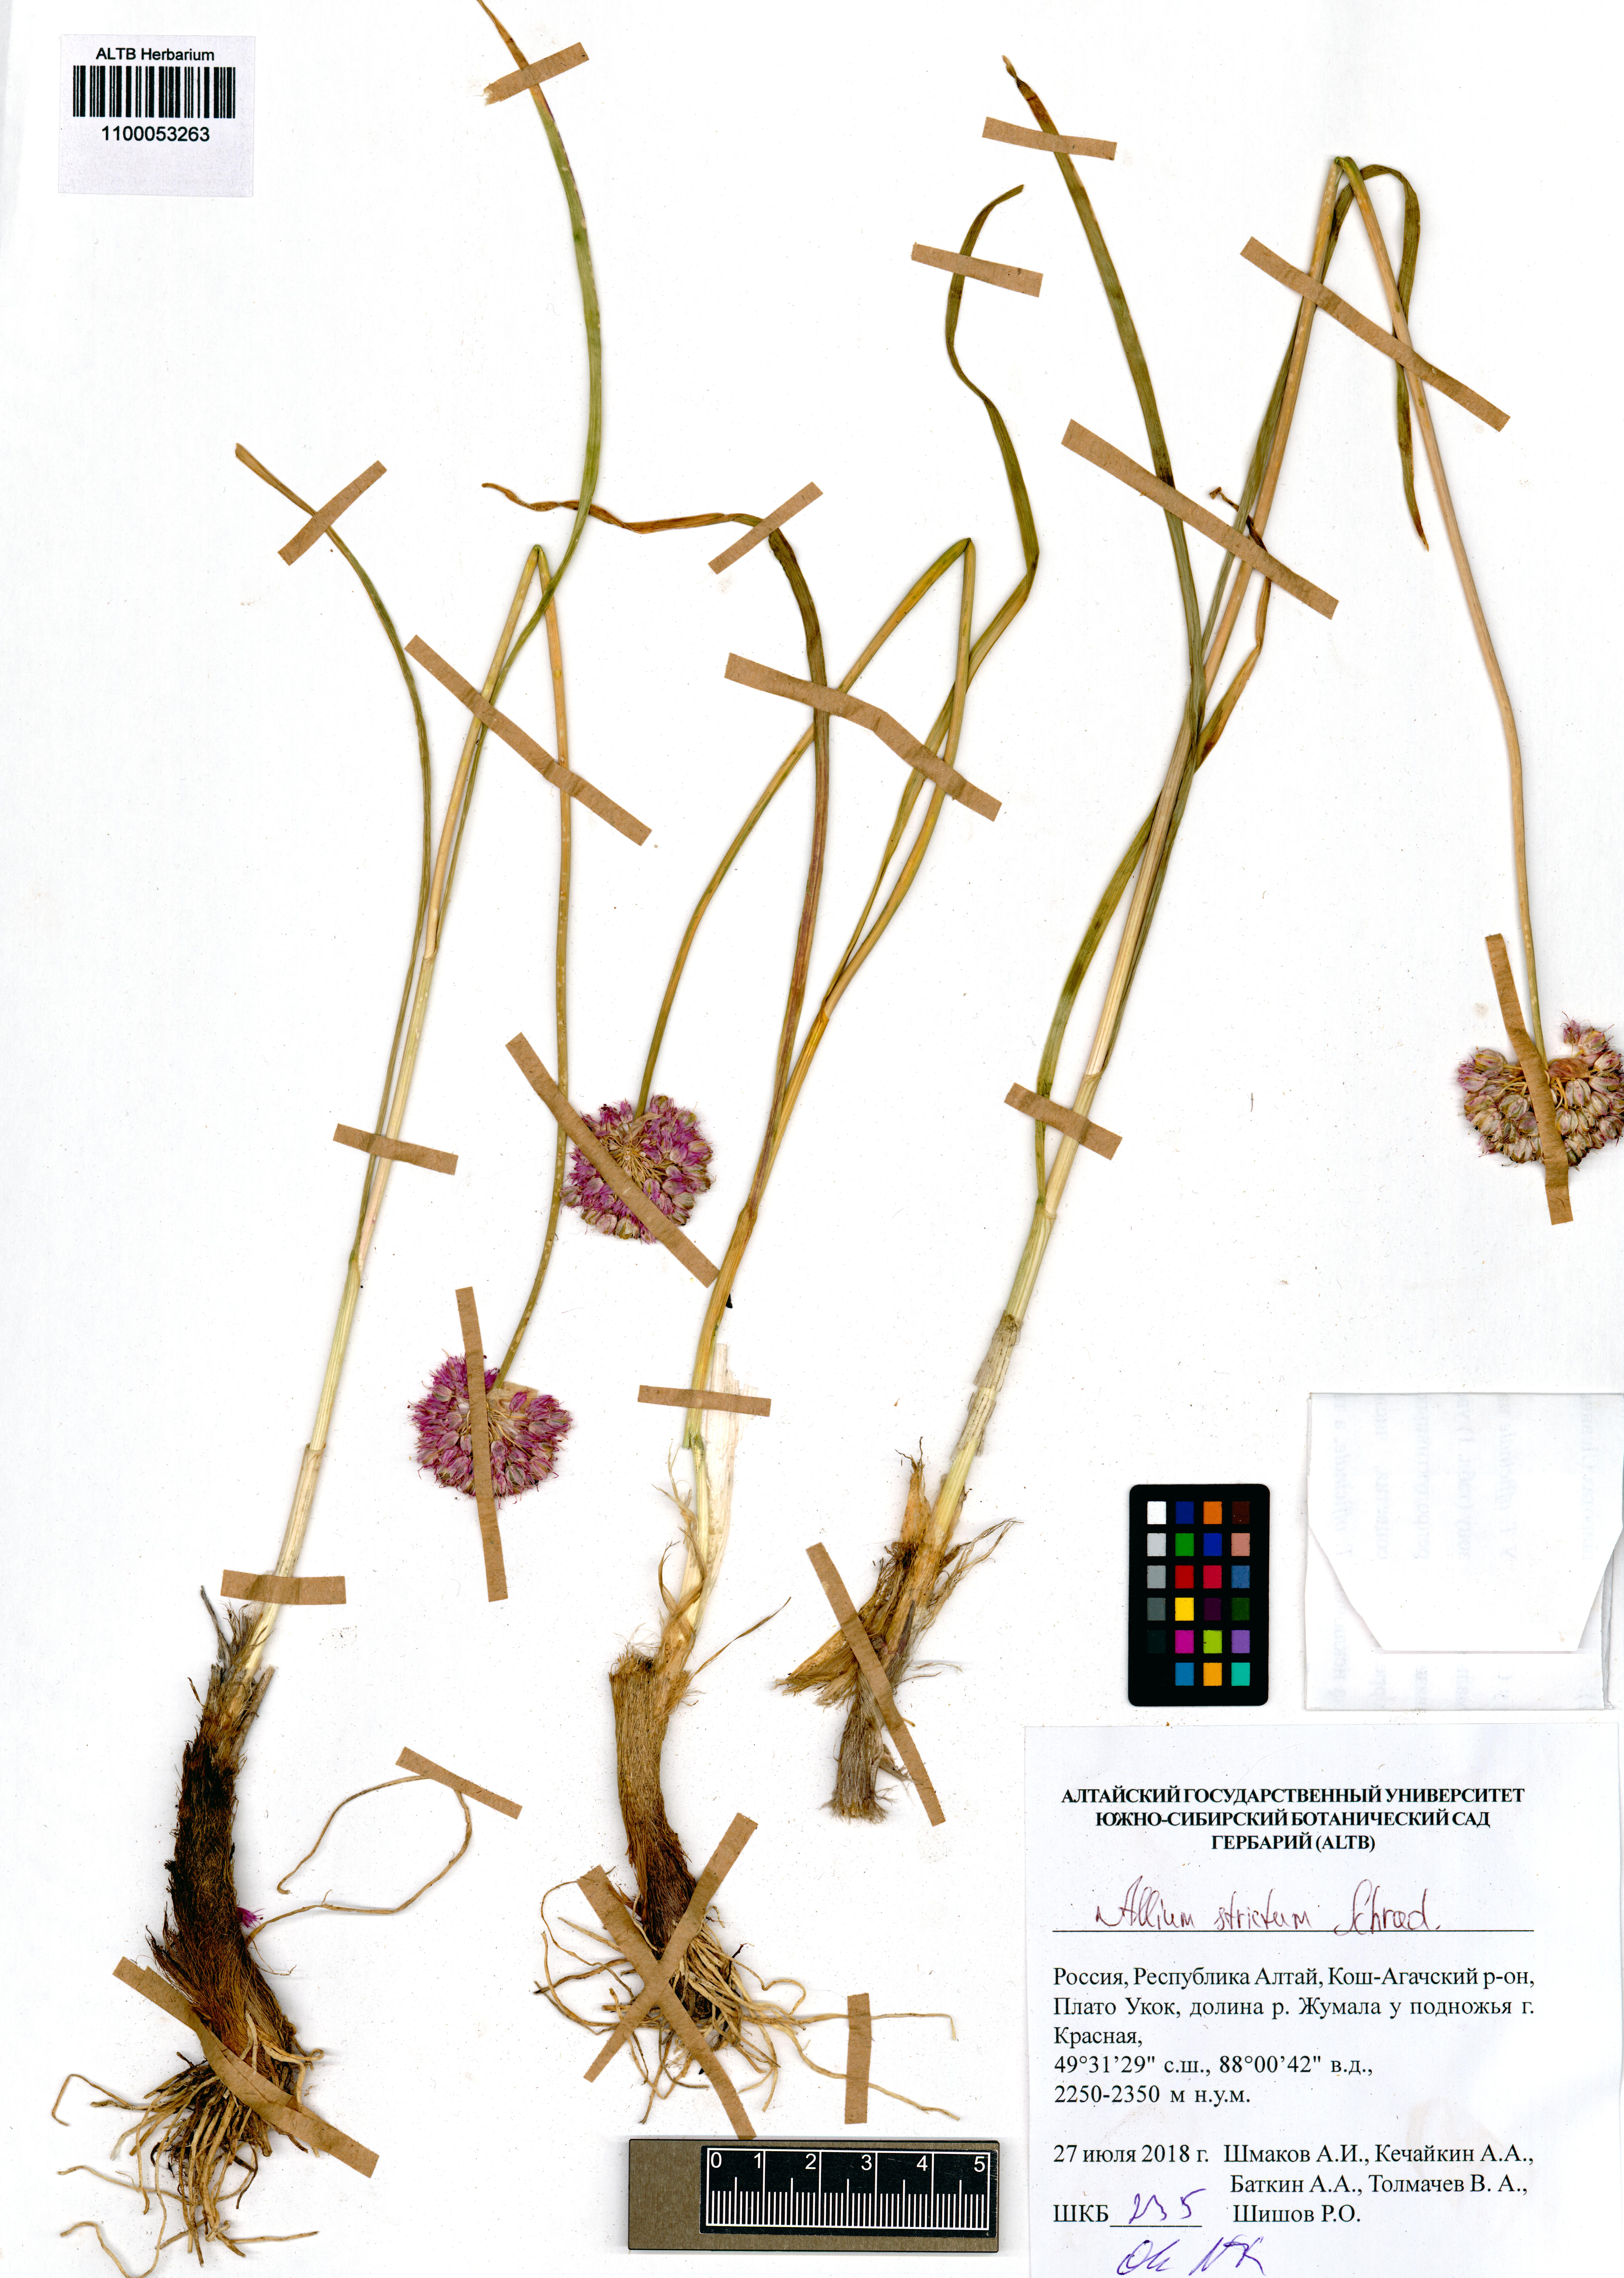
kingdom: Plantae
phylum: Tracheophyta
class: Liliopsida
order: Asparagales
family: Amaryllidaceae
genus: Allium
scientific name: Allium strictum
